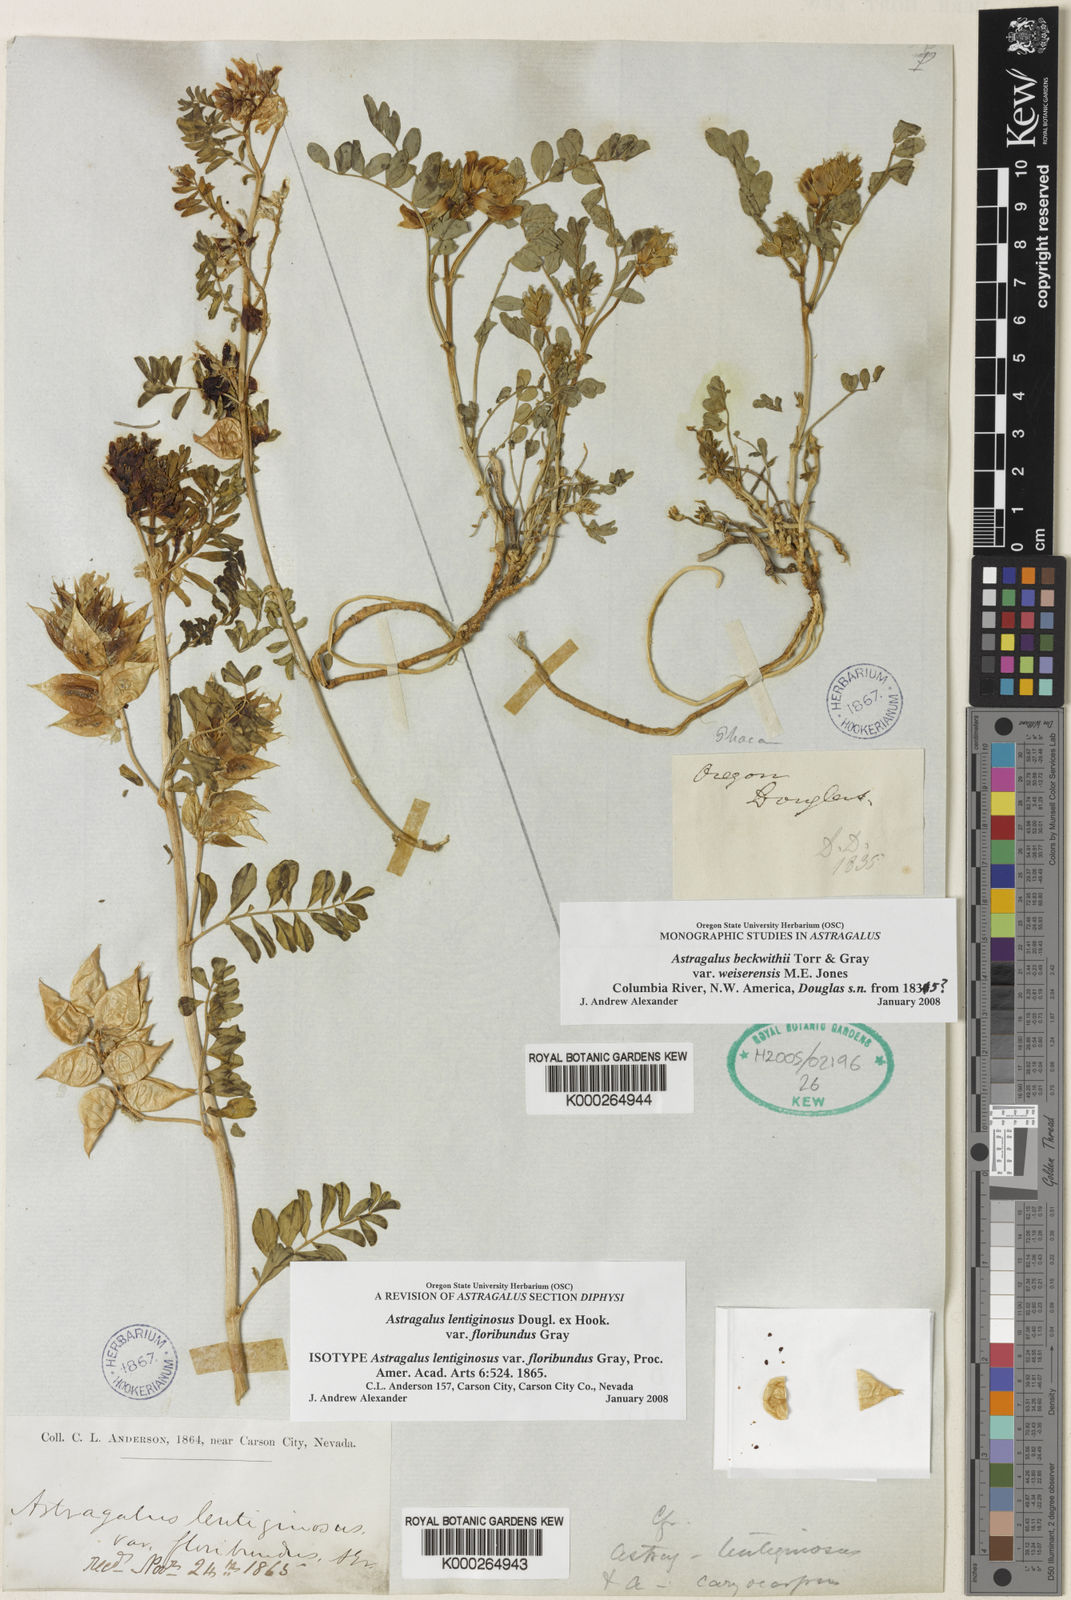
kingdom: Plantae
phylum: Tracheophyta
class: Magnoliopsida
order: Fabales
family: Fabaceae
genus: Astragalus
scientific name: Astragalus lentiginosus
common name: Freckled milkvetch
